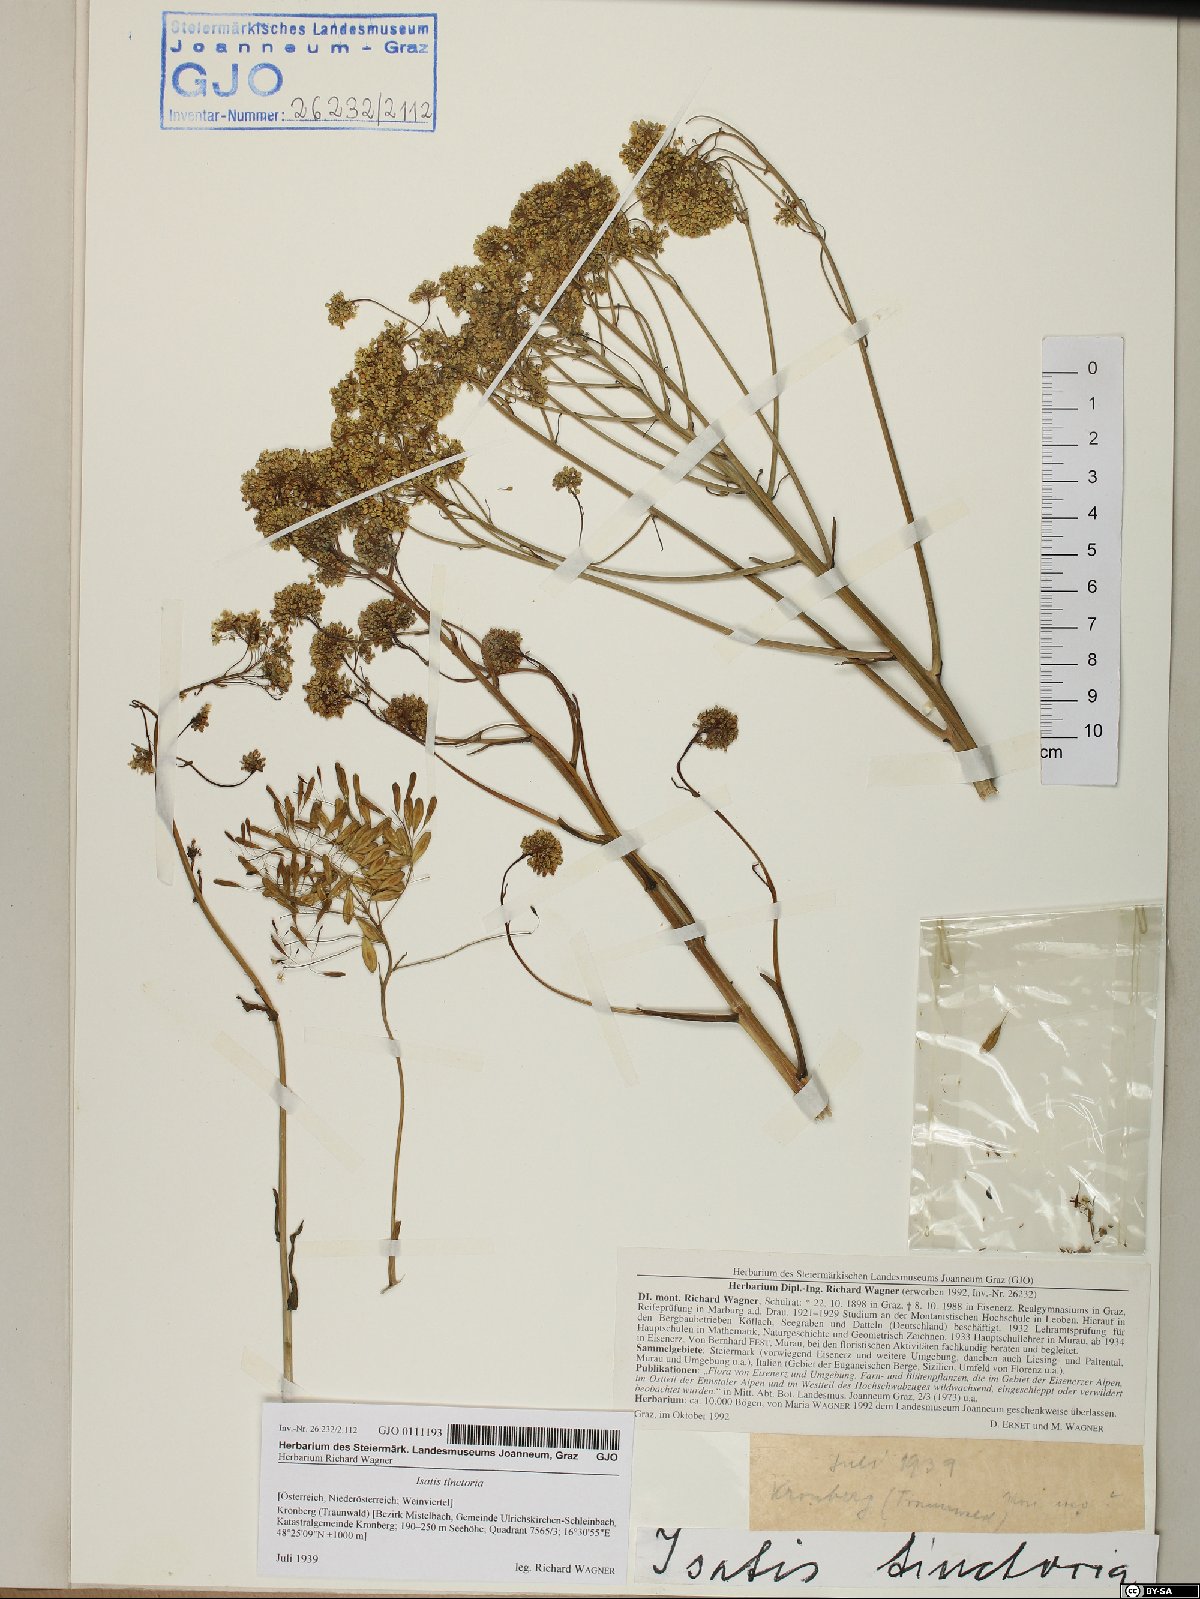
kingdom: Plantae
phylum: Tracheophyta
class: Magnoliopsida
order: Brassicales
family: Brassicaceae
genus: Isatis
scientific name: Isatis tinctoria
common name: Woad
